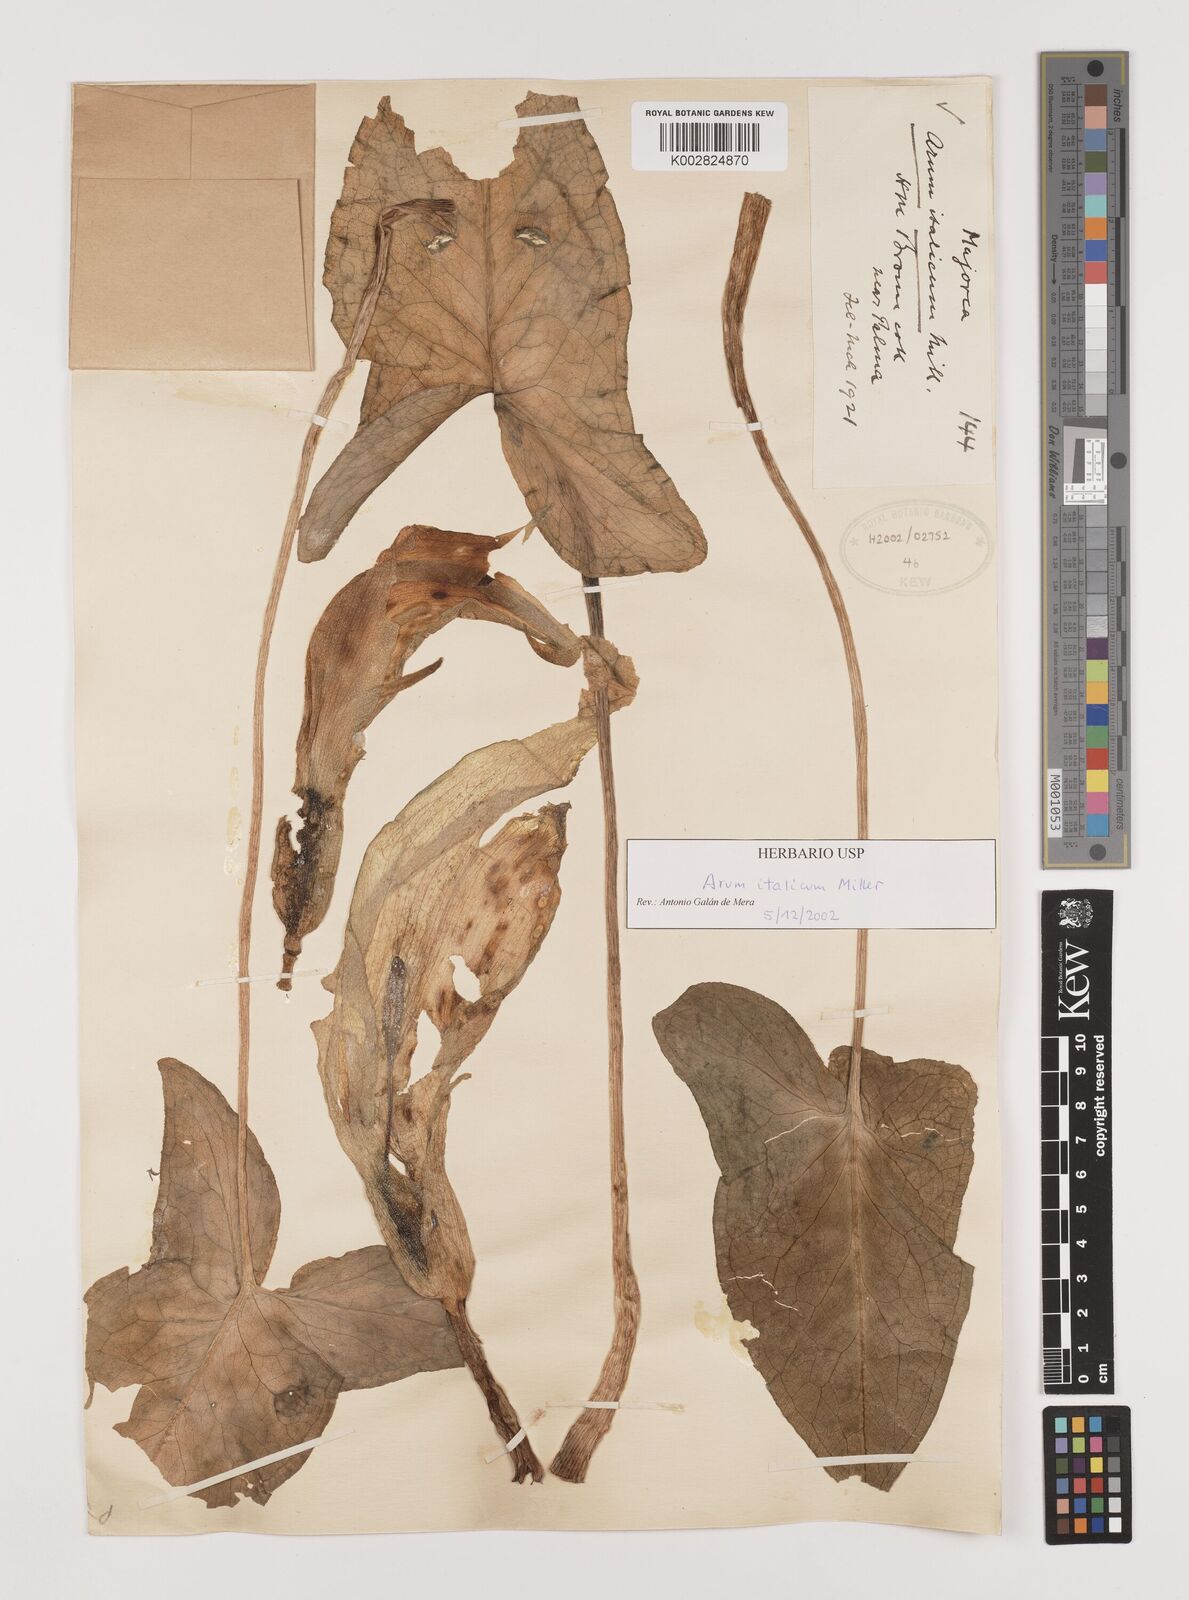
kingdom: Plantae
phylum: Tracheophyta
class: Liliopsida
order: Alismatales
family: Araceae
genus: Arum
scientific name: Arum italicum
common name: Italian lords-and-ladies
